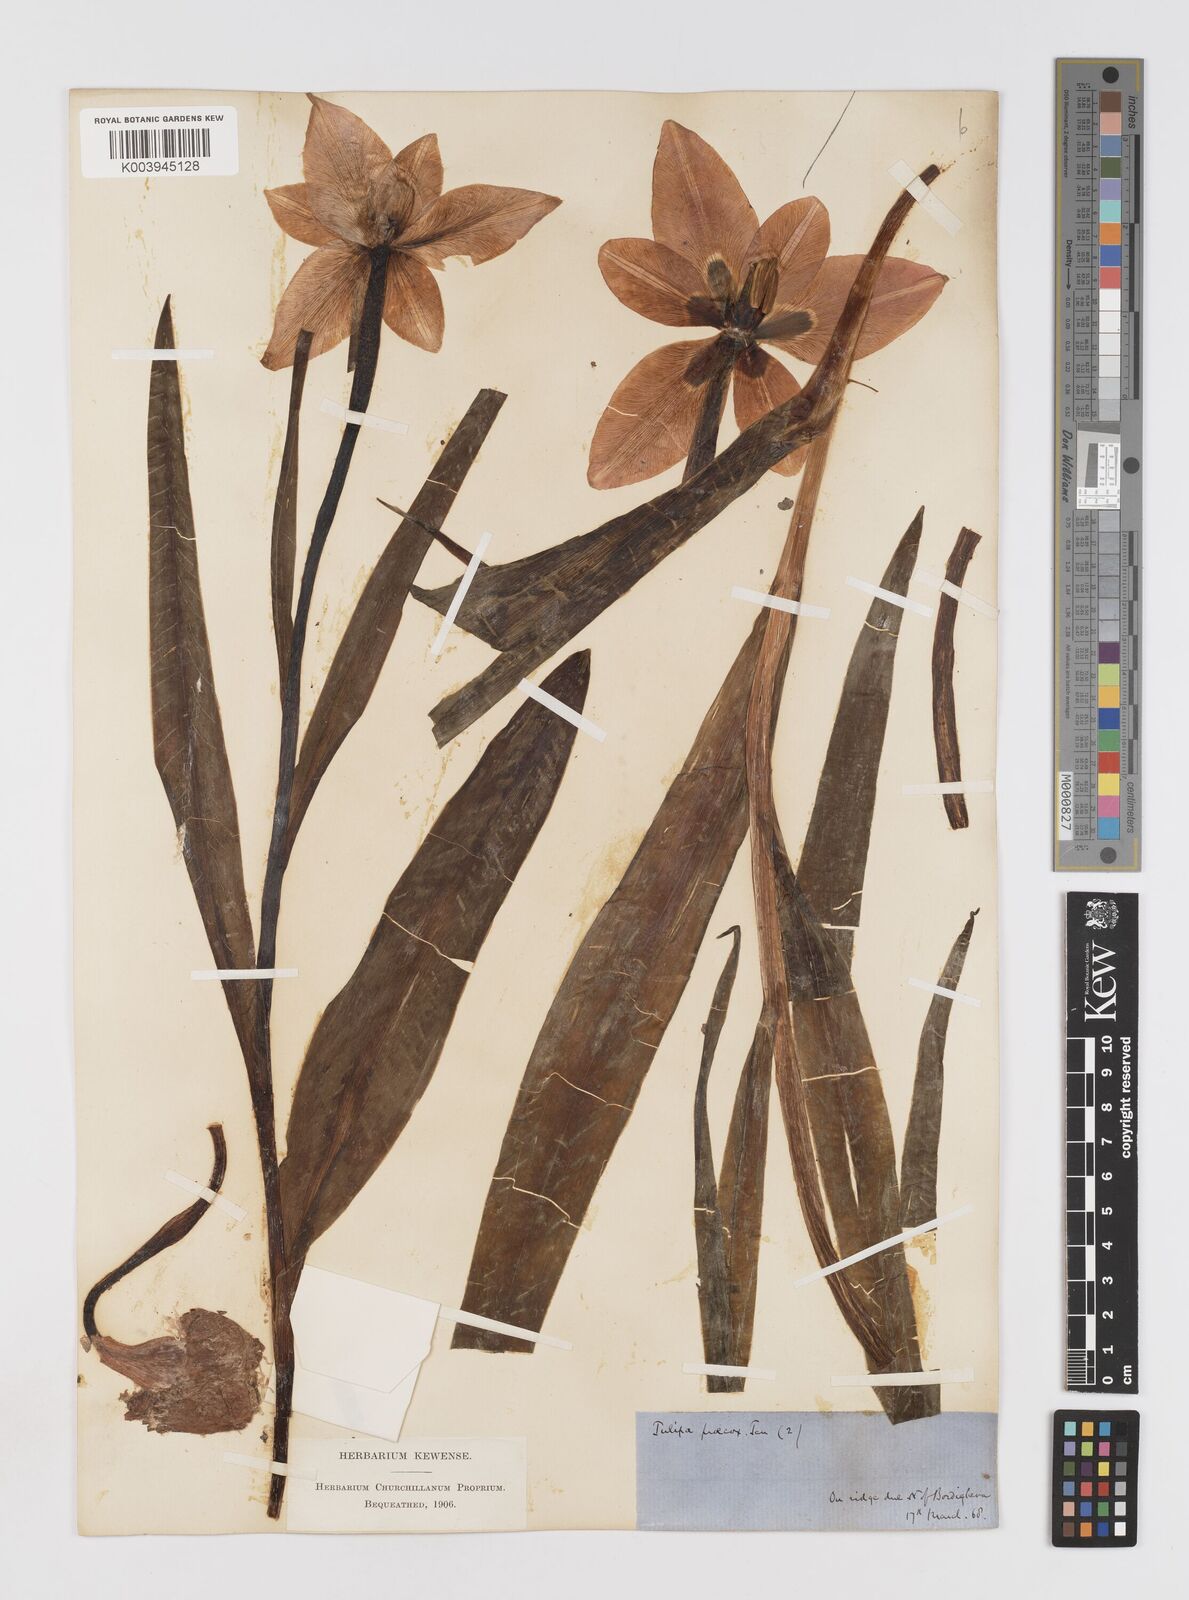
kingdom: Plantae
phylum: Tracheophyta
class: Liliopsida
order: Liliales
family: Liliaceae
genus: Tulipa
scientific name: Tulipa
